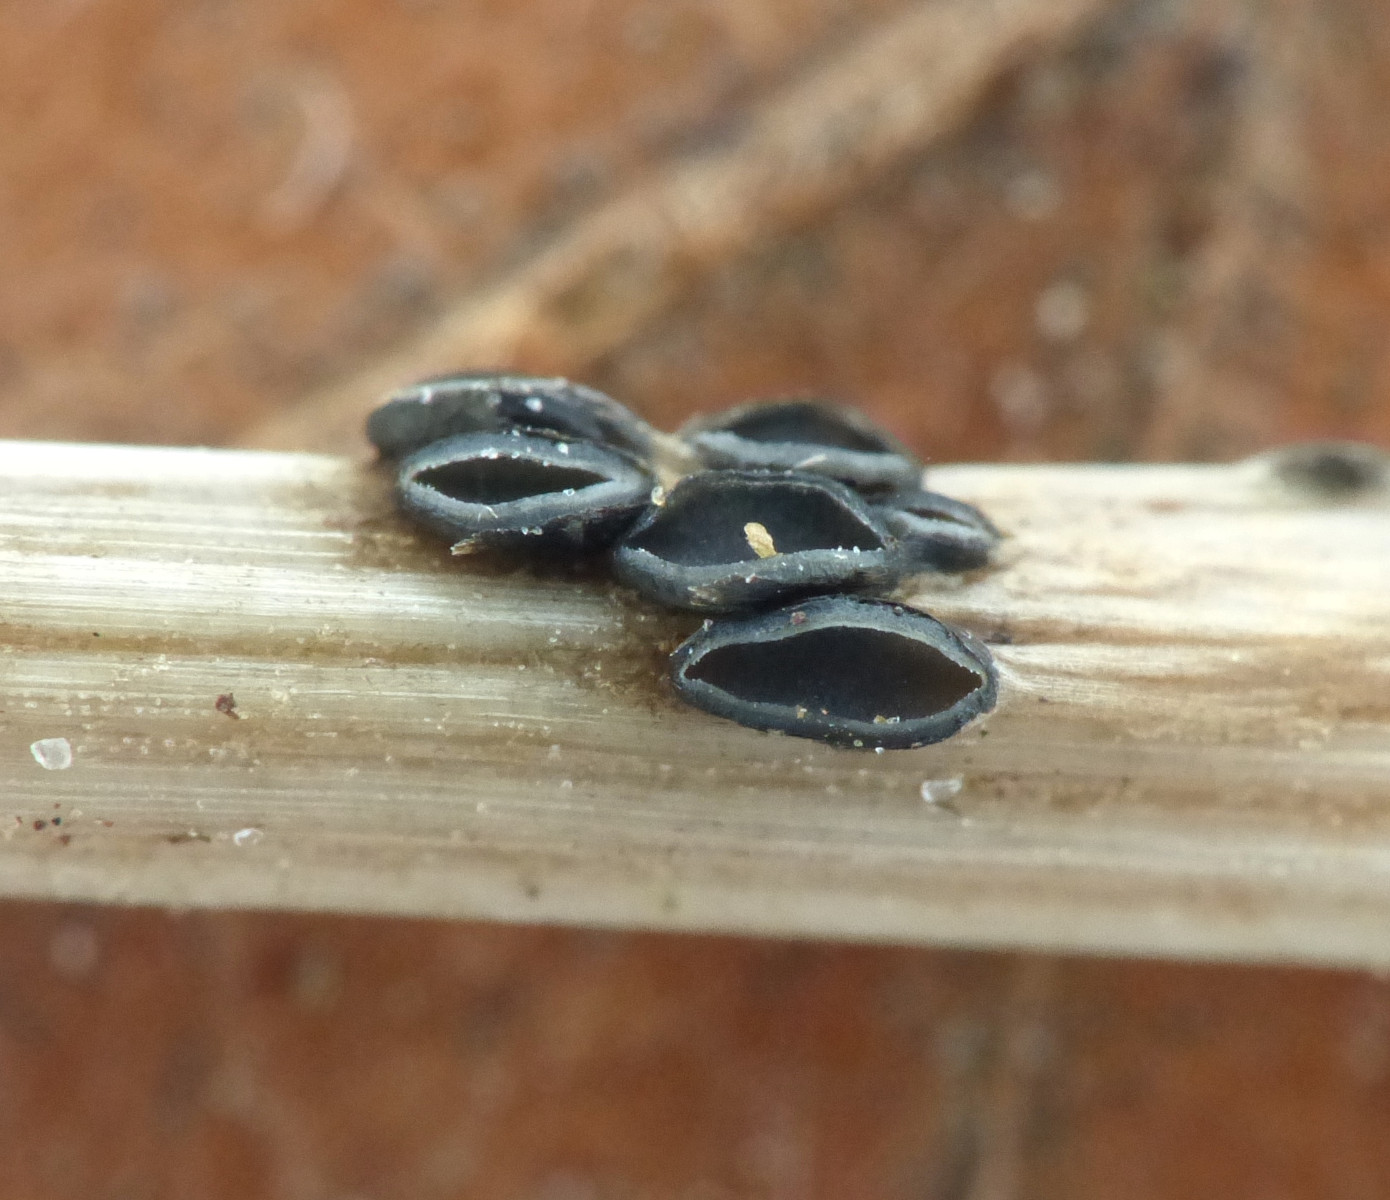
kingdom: Fungi
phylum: Ascomycota
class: Leotiomycetes
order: Helotiales
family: Ploettnerulaceae
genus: Pyrenopeziza
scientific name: Pyrenopeziza petiolaris
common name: ahorn-kerneskive
